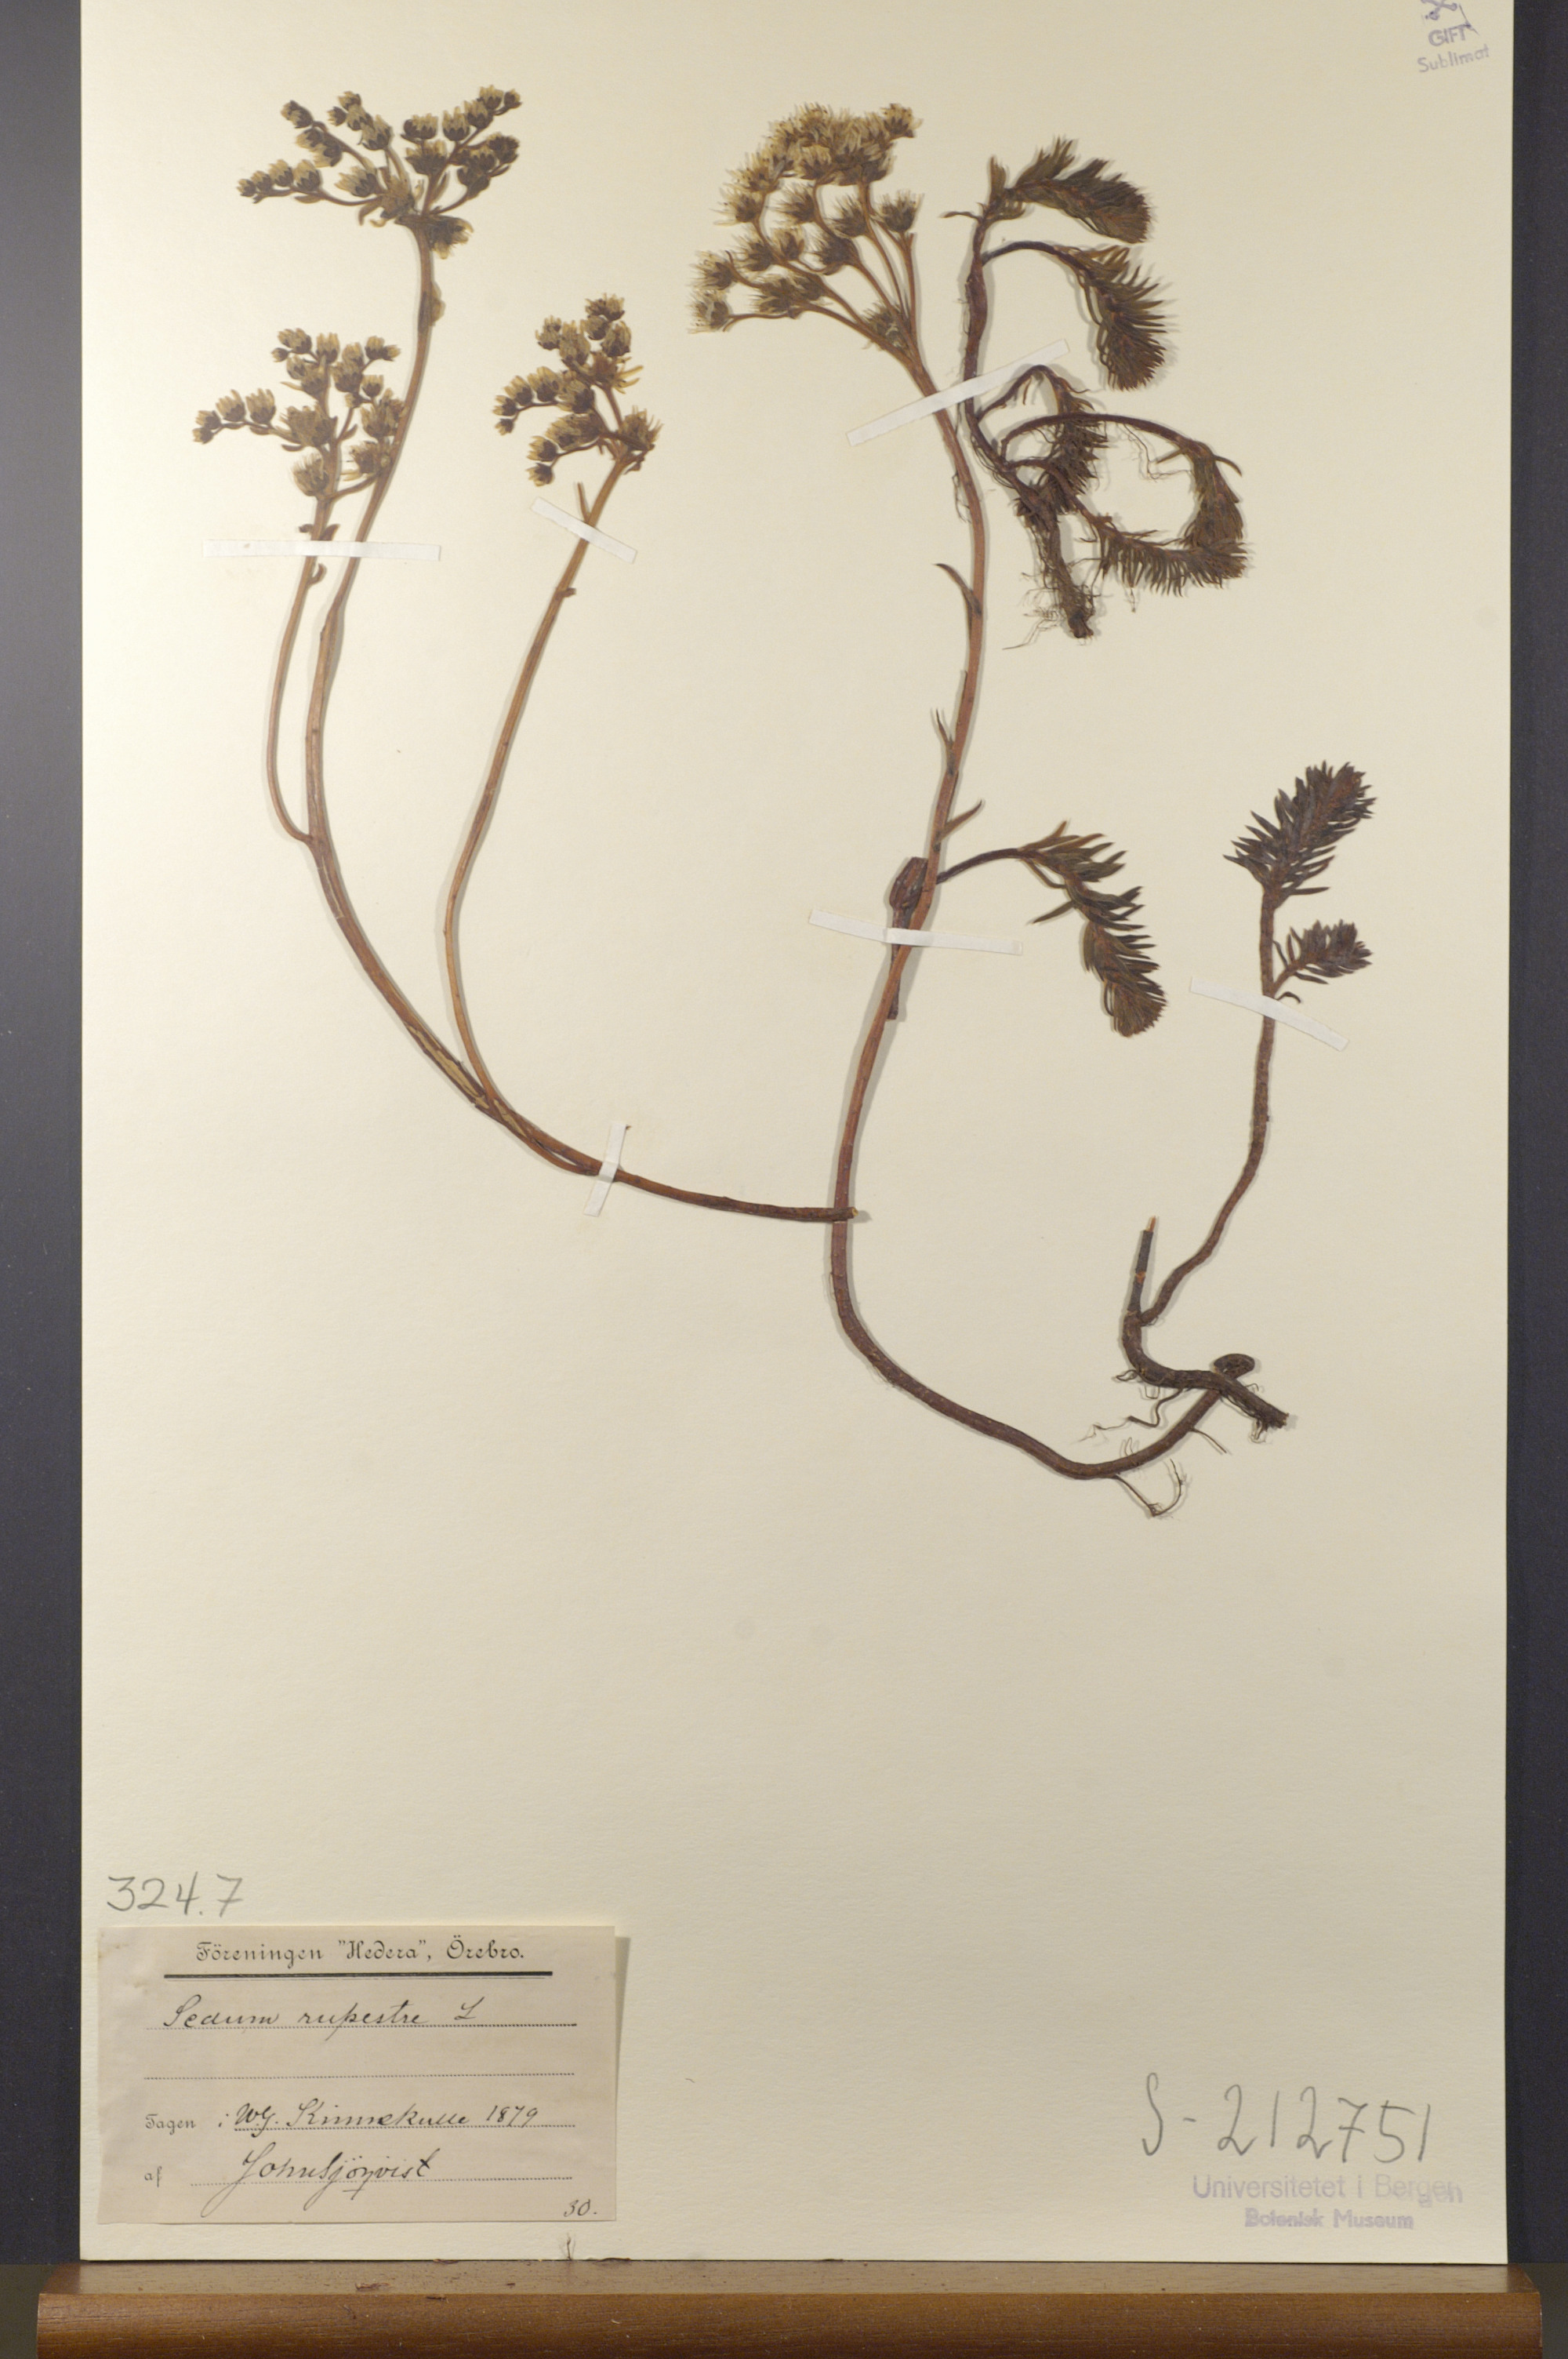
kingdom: Plantae
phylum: Tracheophyta
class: Magnoliopsida
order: Saxifragales
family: Crassulaceae
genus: Petrosedum
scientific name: Petrosedum rupestre
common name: Jenny's stonecrop
